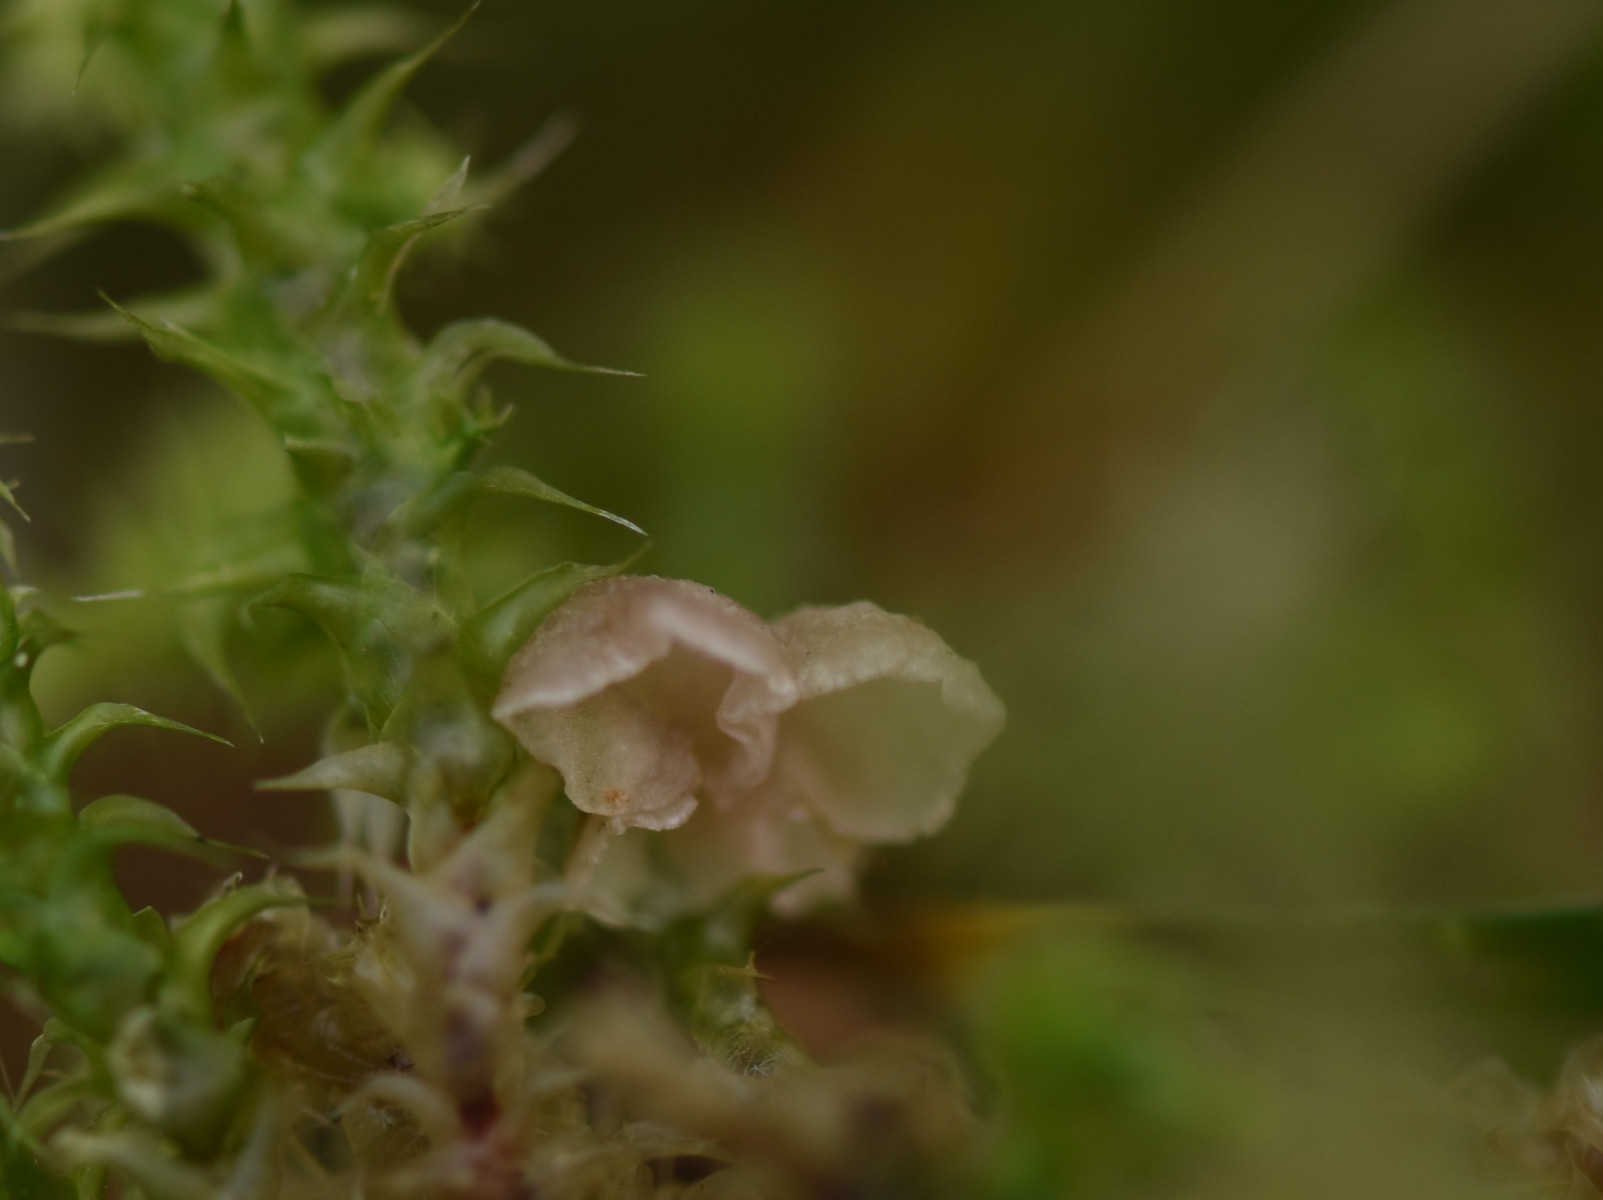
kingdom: Fungi
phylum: Basidiomycota
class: Agaricomycetes
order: Agaricales
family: Hygrophoraceae
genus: Arrhenia
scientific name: Arrhenia retiruga
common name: lille fontænehat
